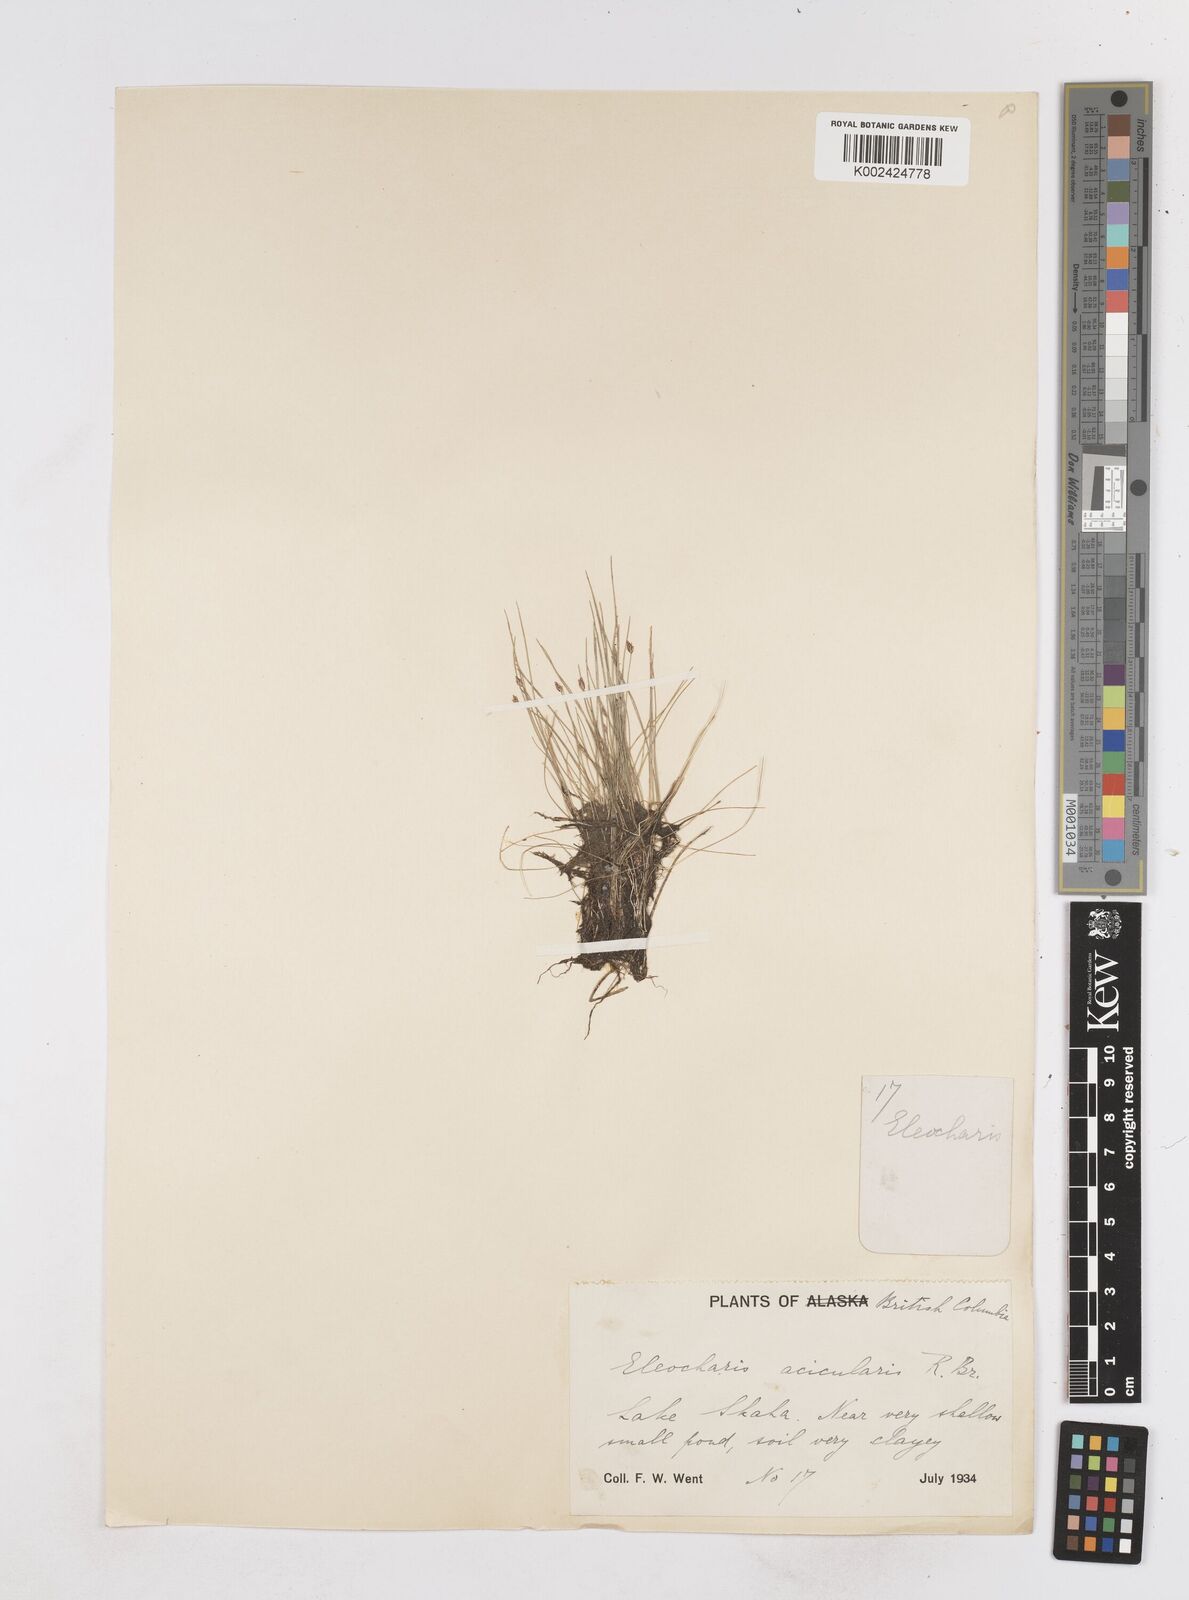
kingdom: Plantae
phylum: Tracheophyta
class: Liliopsida
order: Poales
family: Cyperaceae
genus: Eleocharis
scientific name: Eleocharis acicularis
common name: Needle spike-rush
